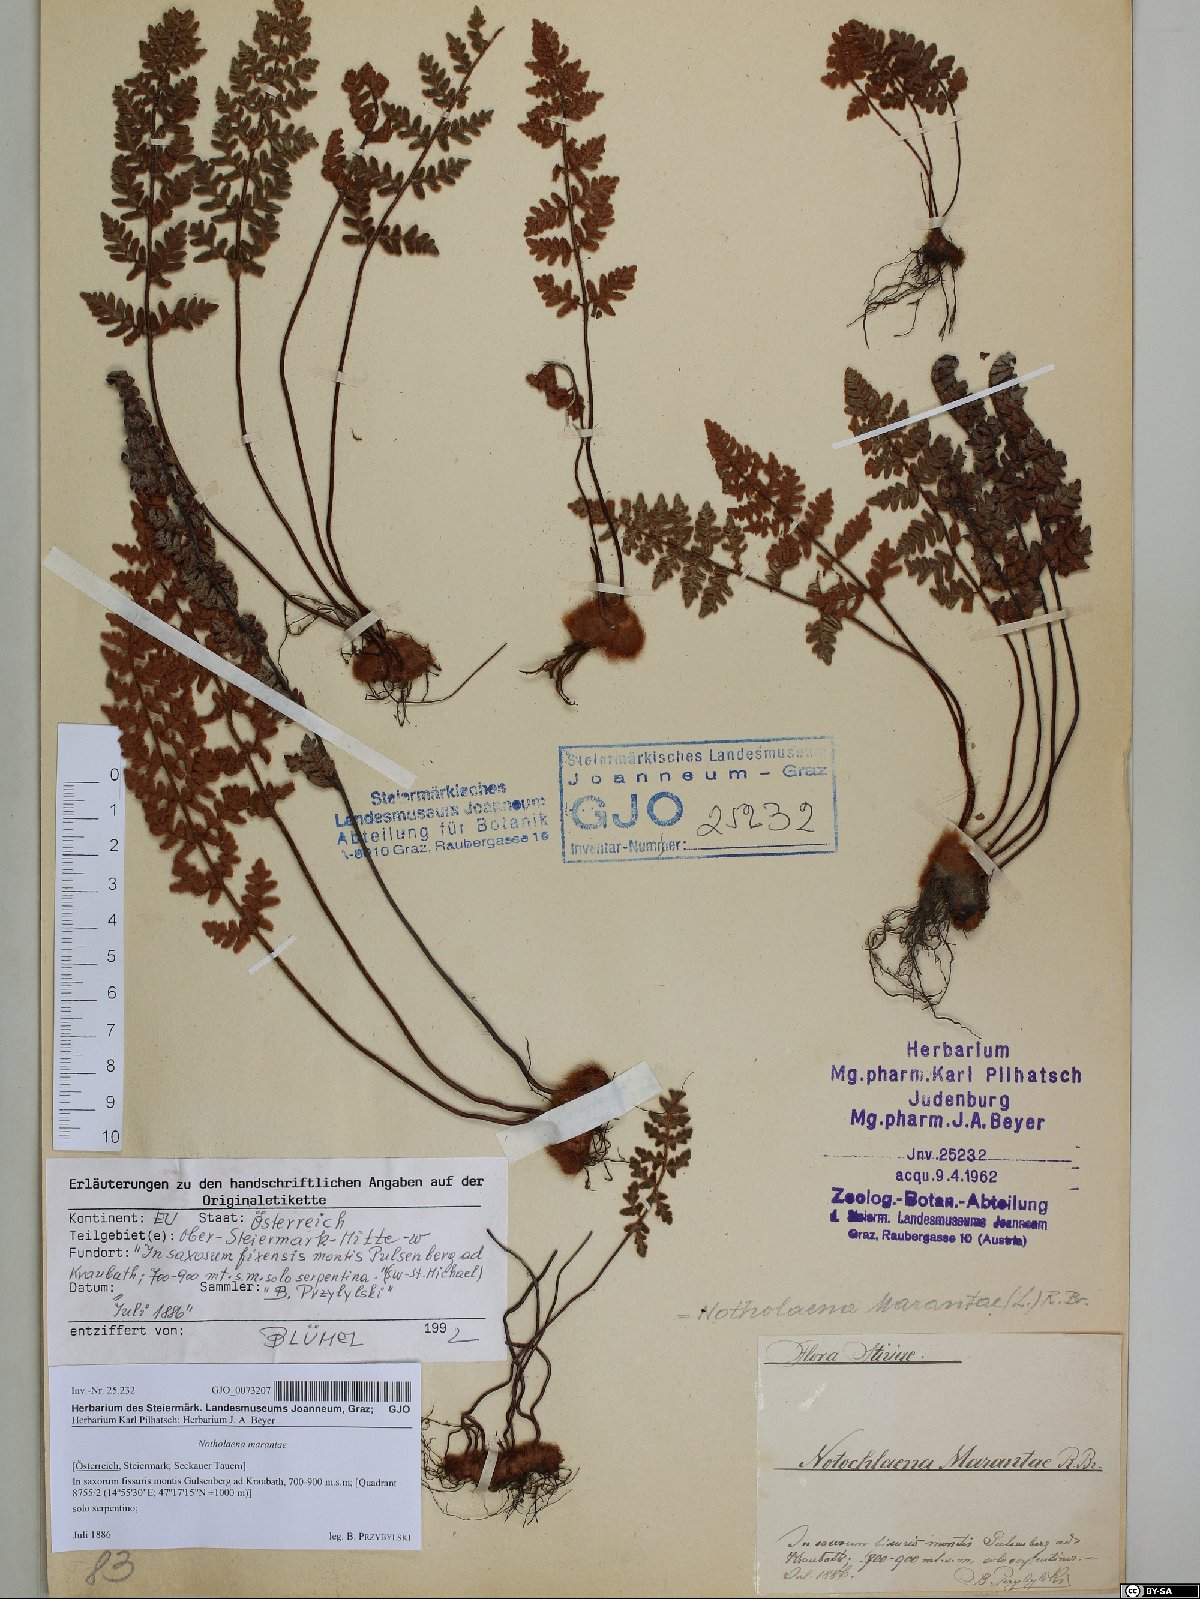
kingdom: Plantae
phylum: Tracheophyta
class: Polypodiopsida
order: Polypodiales
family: Pteridaceae
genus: Paragymnopteris
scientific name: Paragymnopteris marantae
